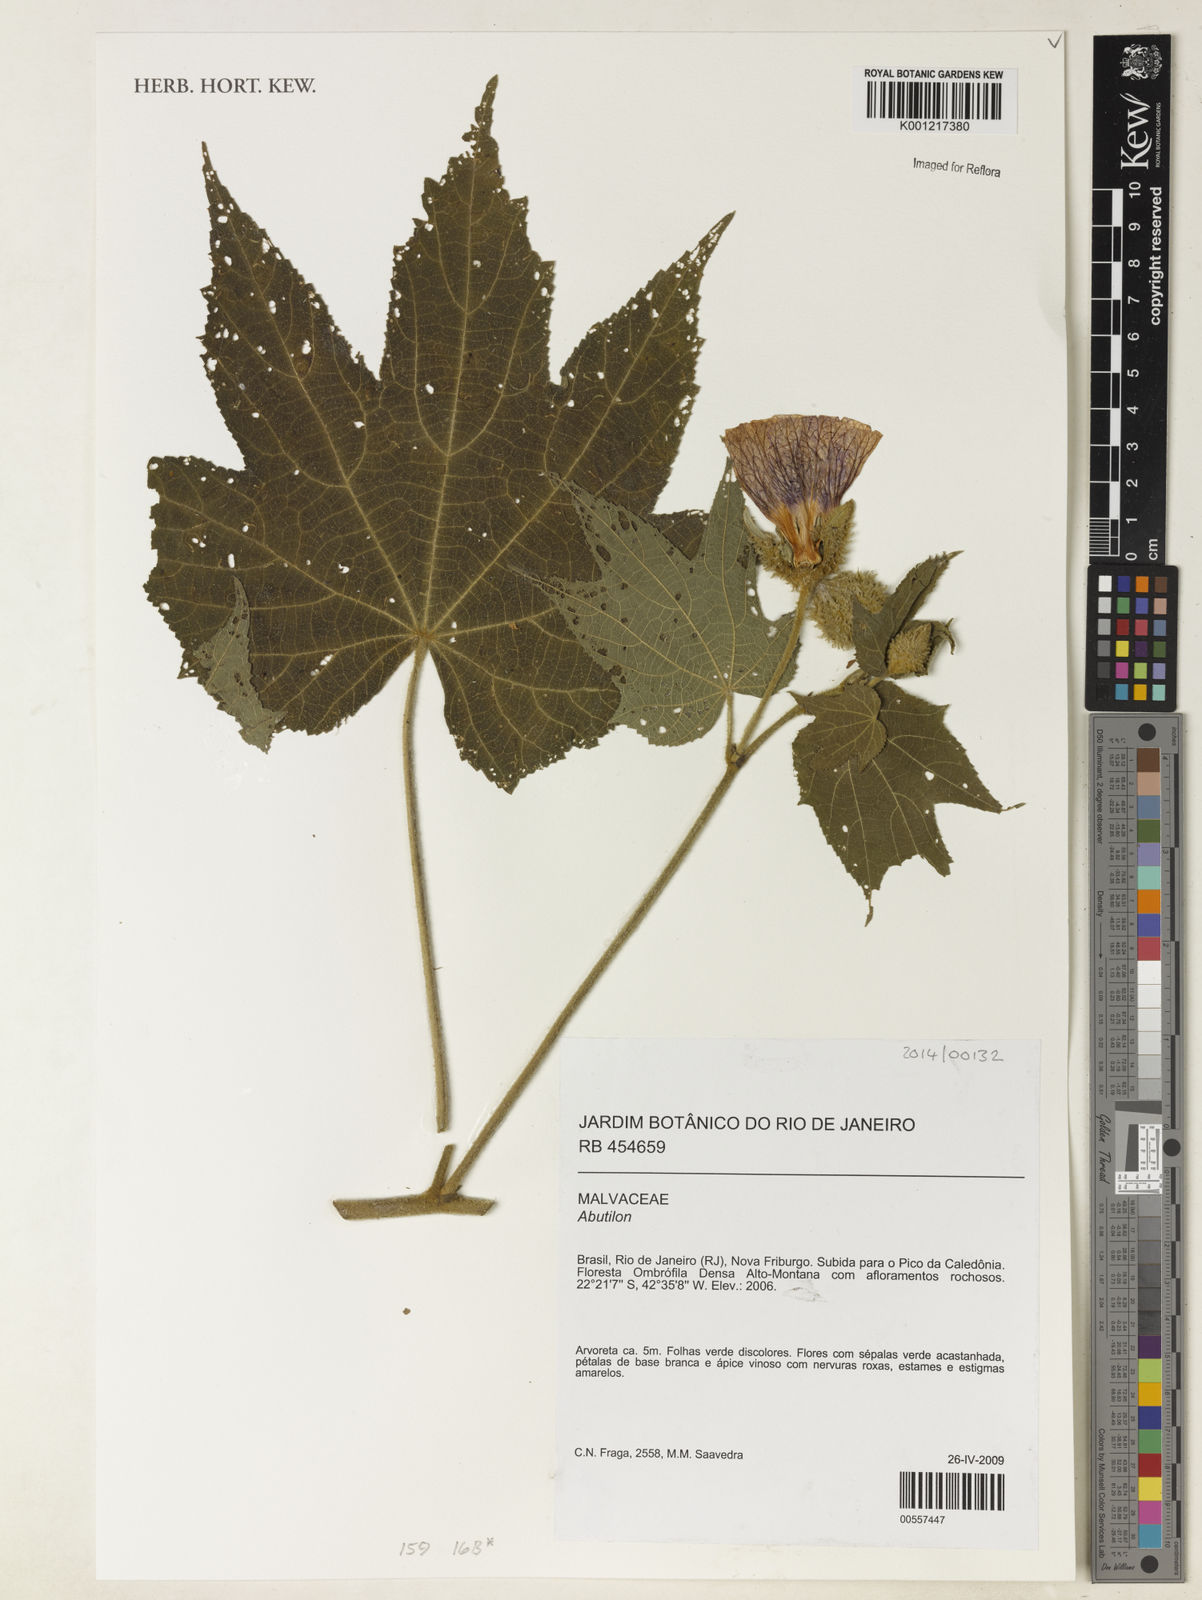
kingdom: Plantae
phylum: Tracheophyta
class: Magnoliopsida
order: Malvales
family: Malvaceae
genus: Abutilon
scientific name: Abutilon
